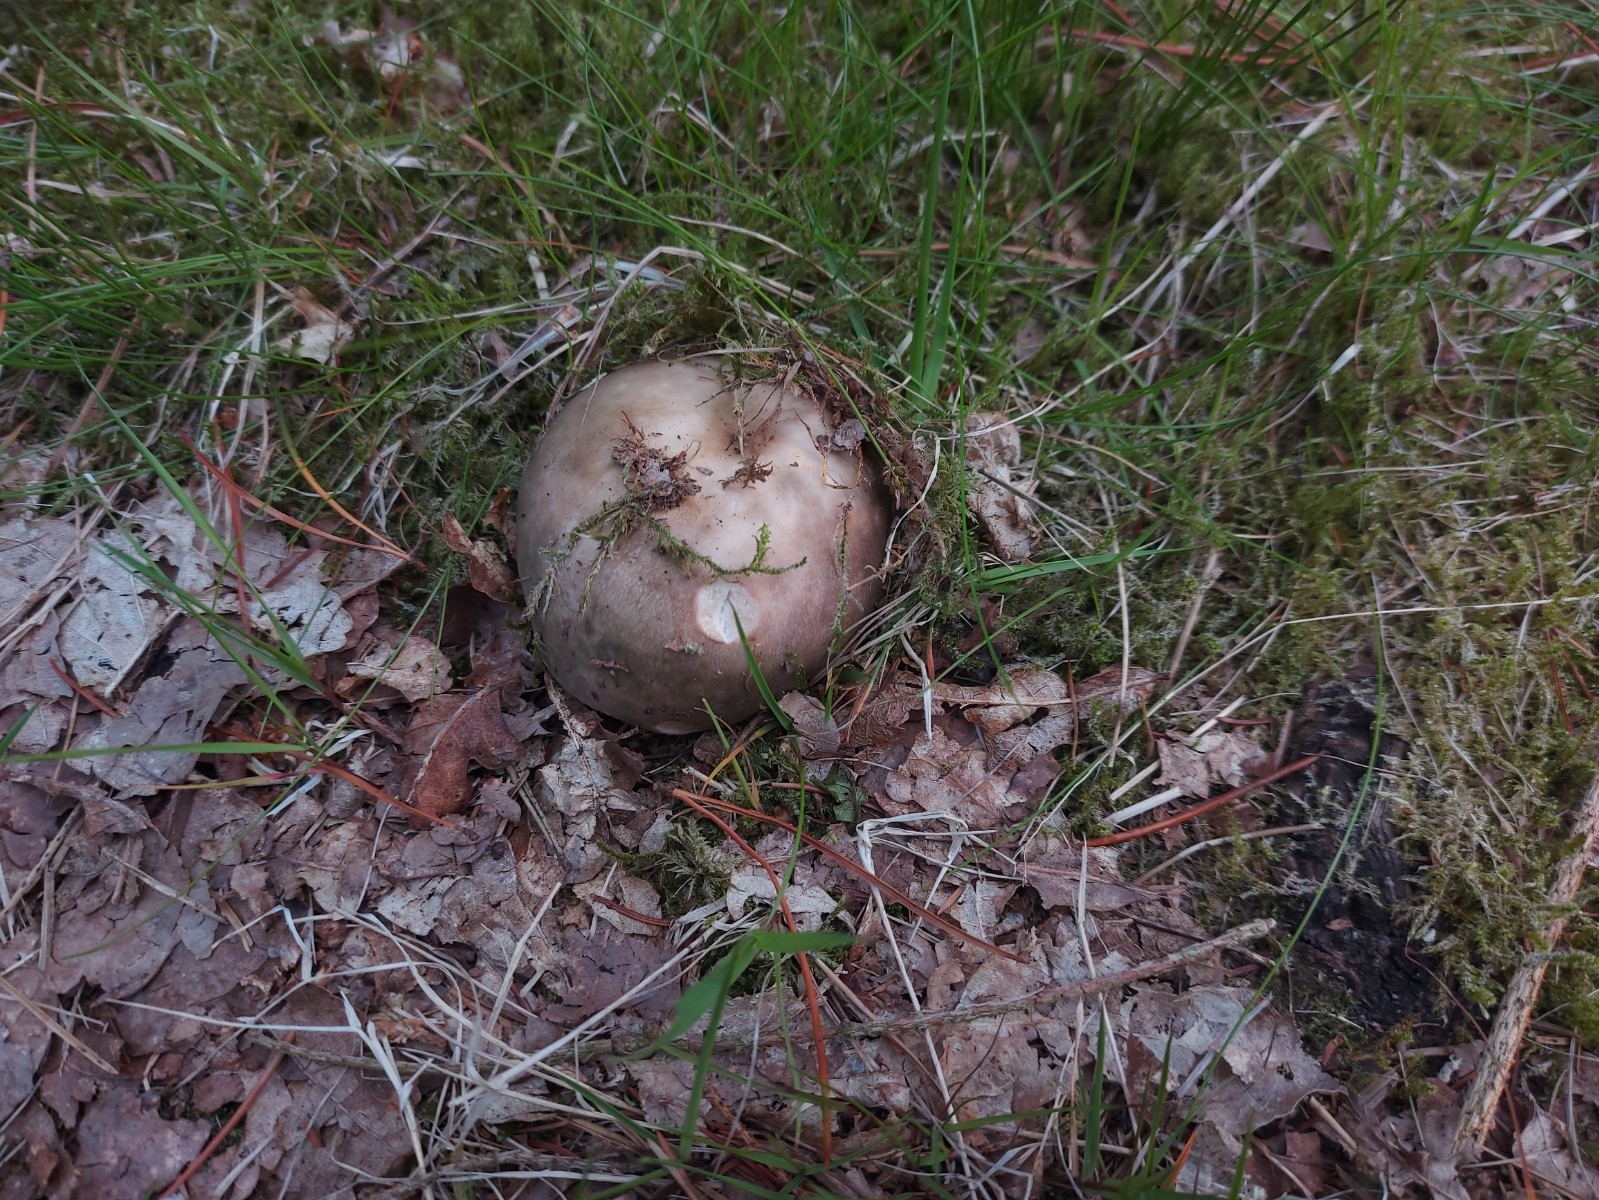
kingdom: Fungi
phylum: Basidiomycota
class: Agaricomycetes
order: Russulales
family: Russulaceae
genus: Russula
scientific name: Russula cyanoxantha
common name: broget skørhat
